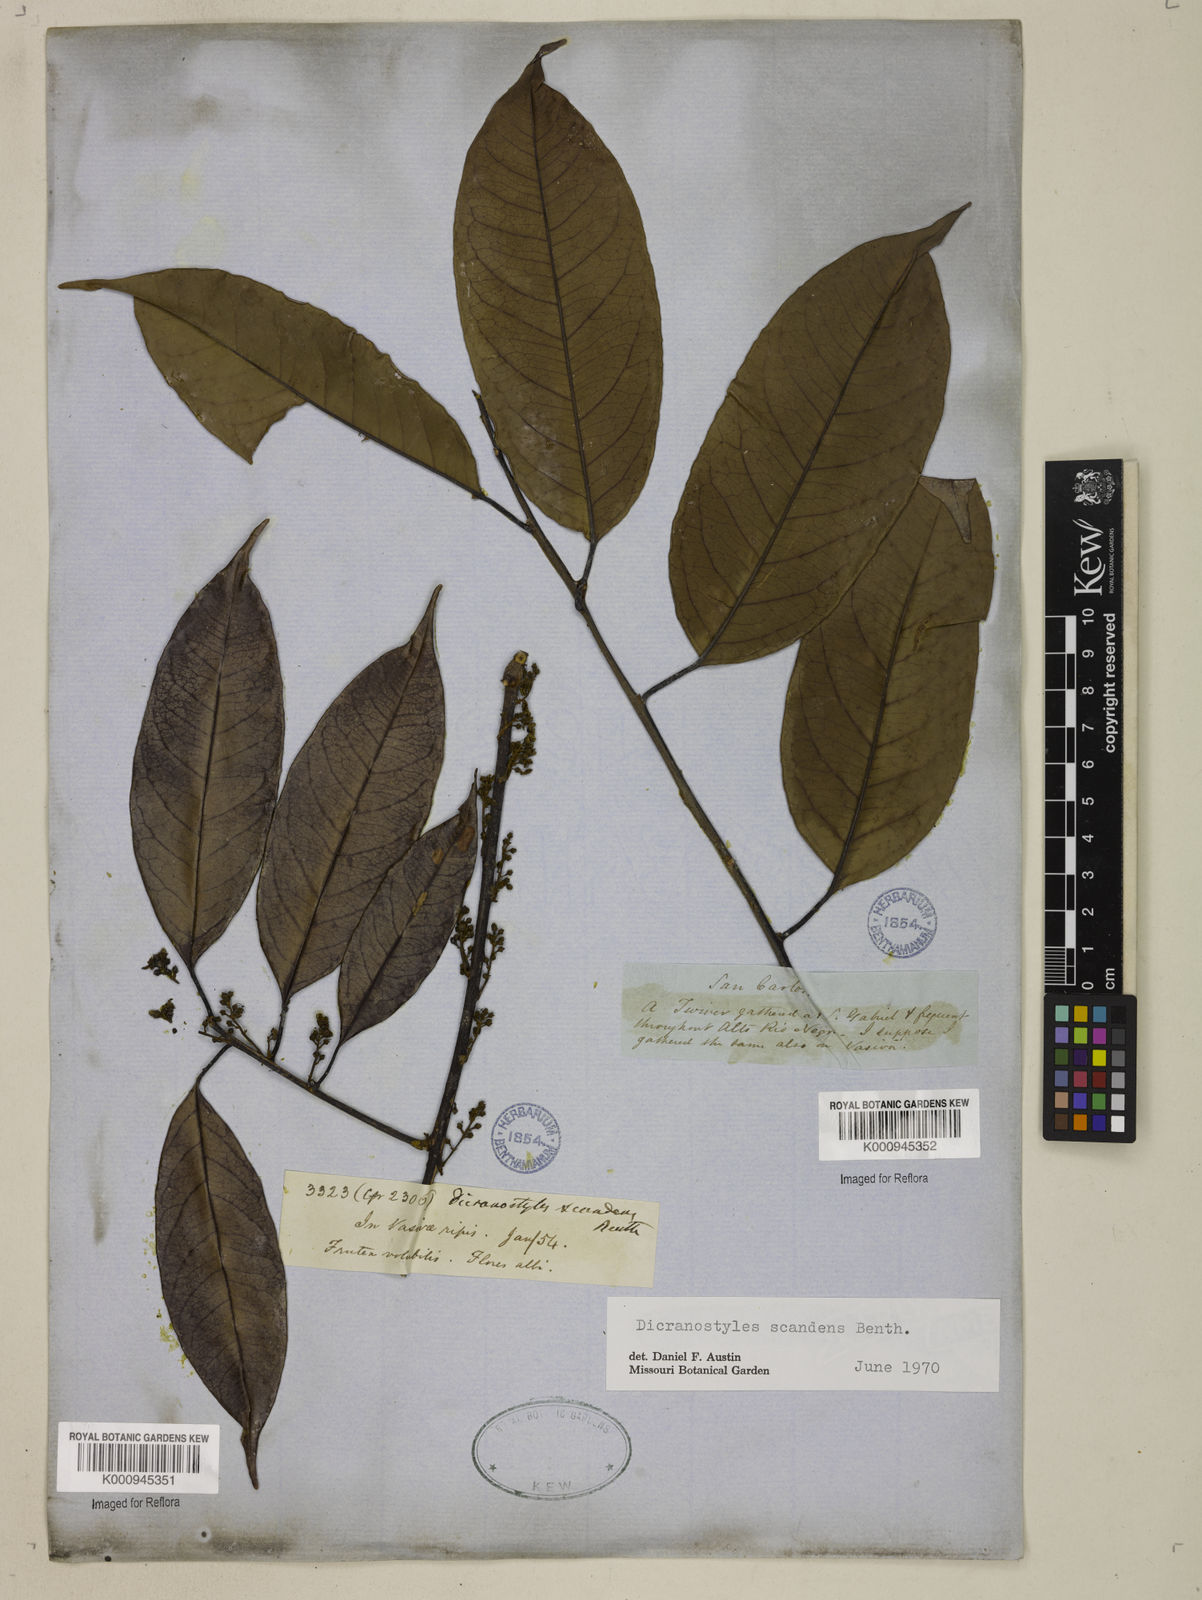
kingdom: Plantae
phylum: Tracheophyta
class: Magnoliopsida
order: Solanales
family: Convolvulaceae
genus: Dicranostyles
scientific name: Dicranostyles scandens
